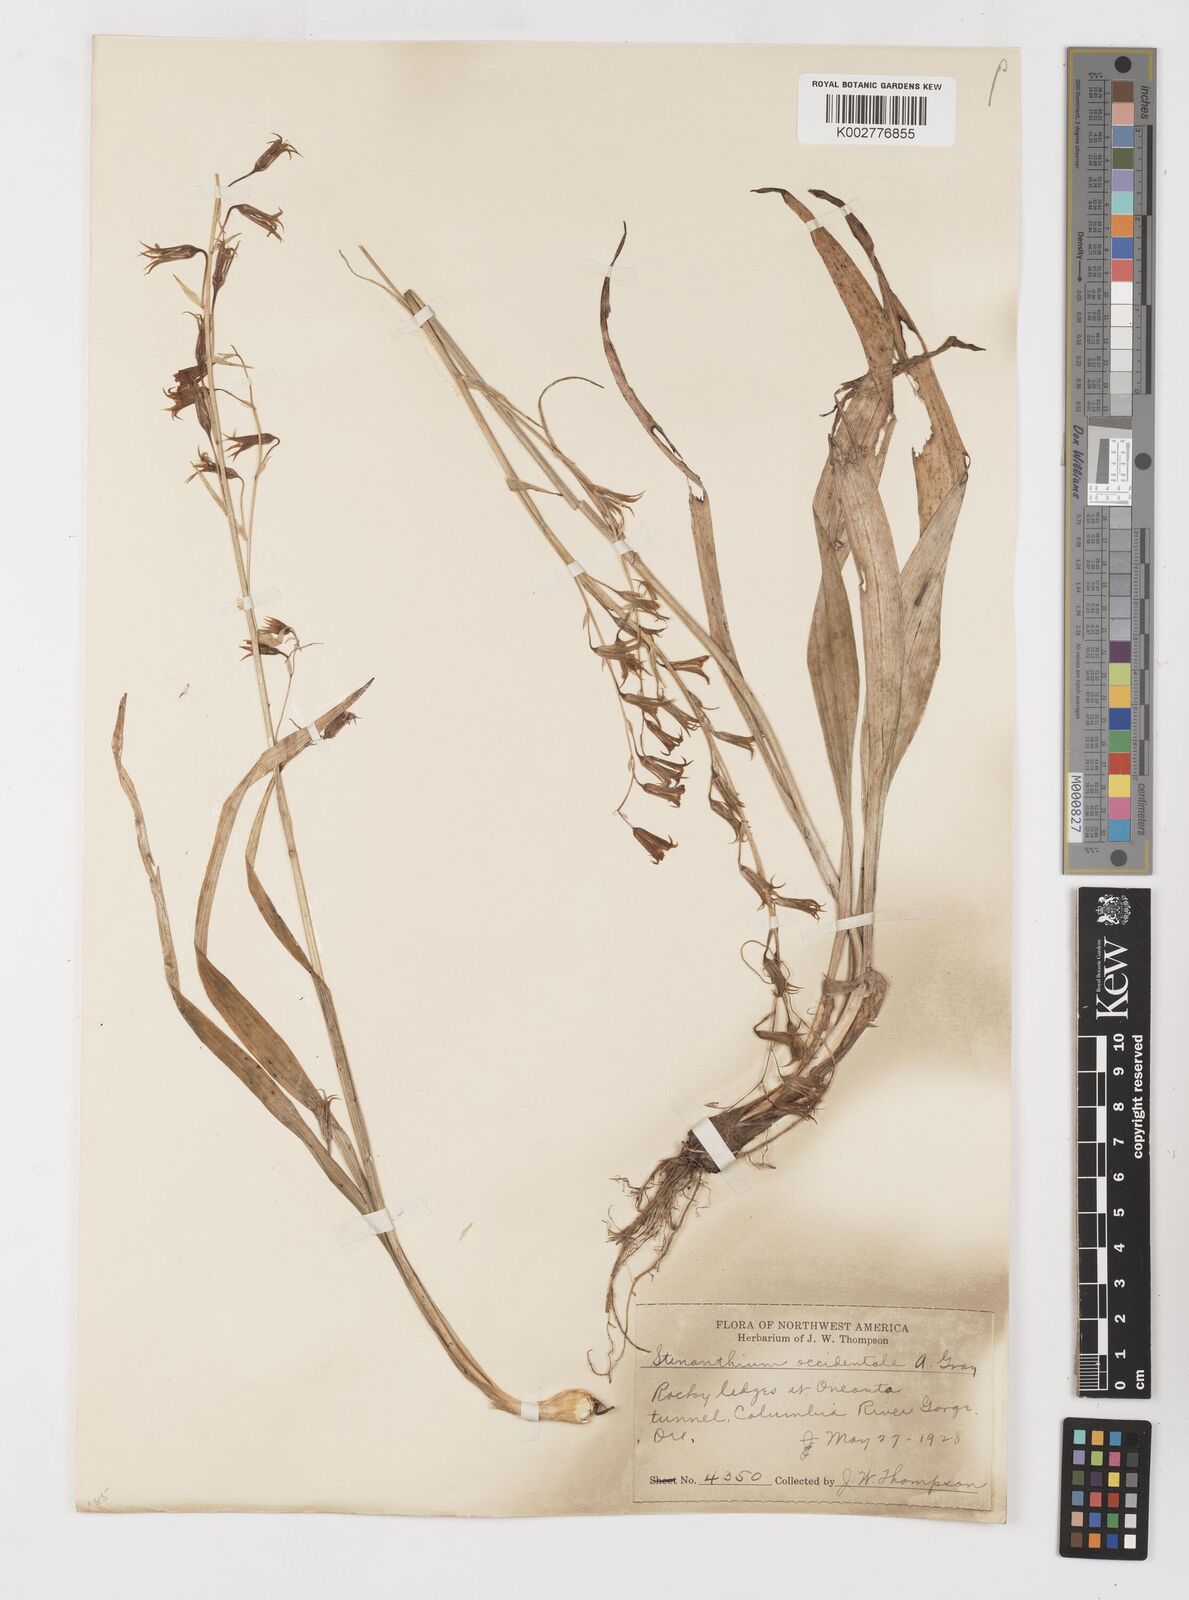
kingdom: Plantae
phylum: Tracheophyta
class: Liliopsida
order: Liliales
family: Melanthiaceae
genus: Anticlea
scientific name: Anticlea occidentalis
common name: Bronze-bells
